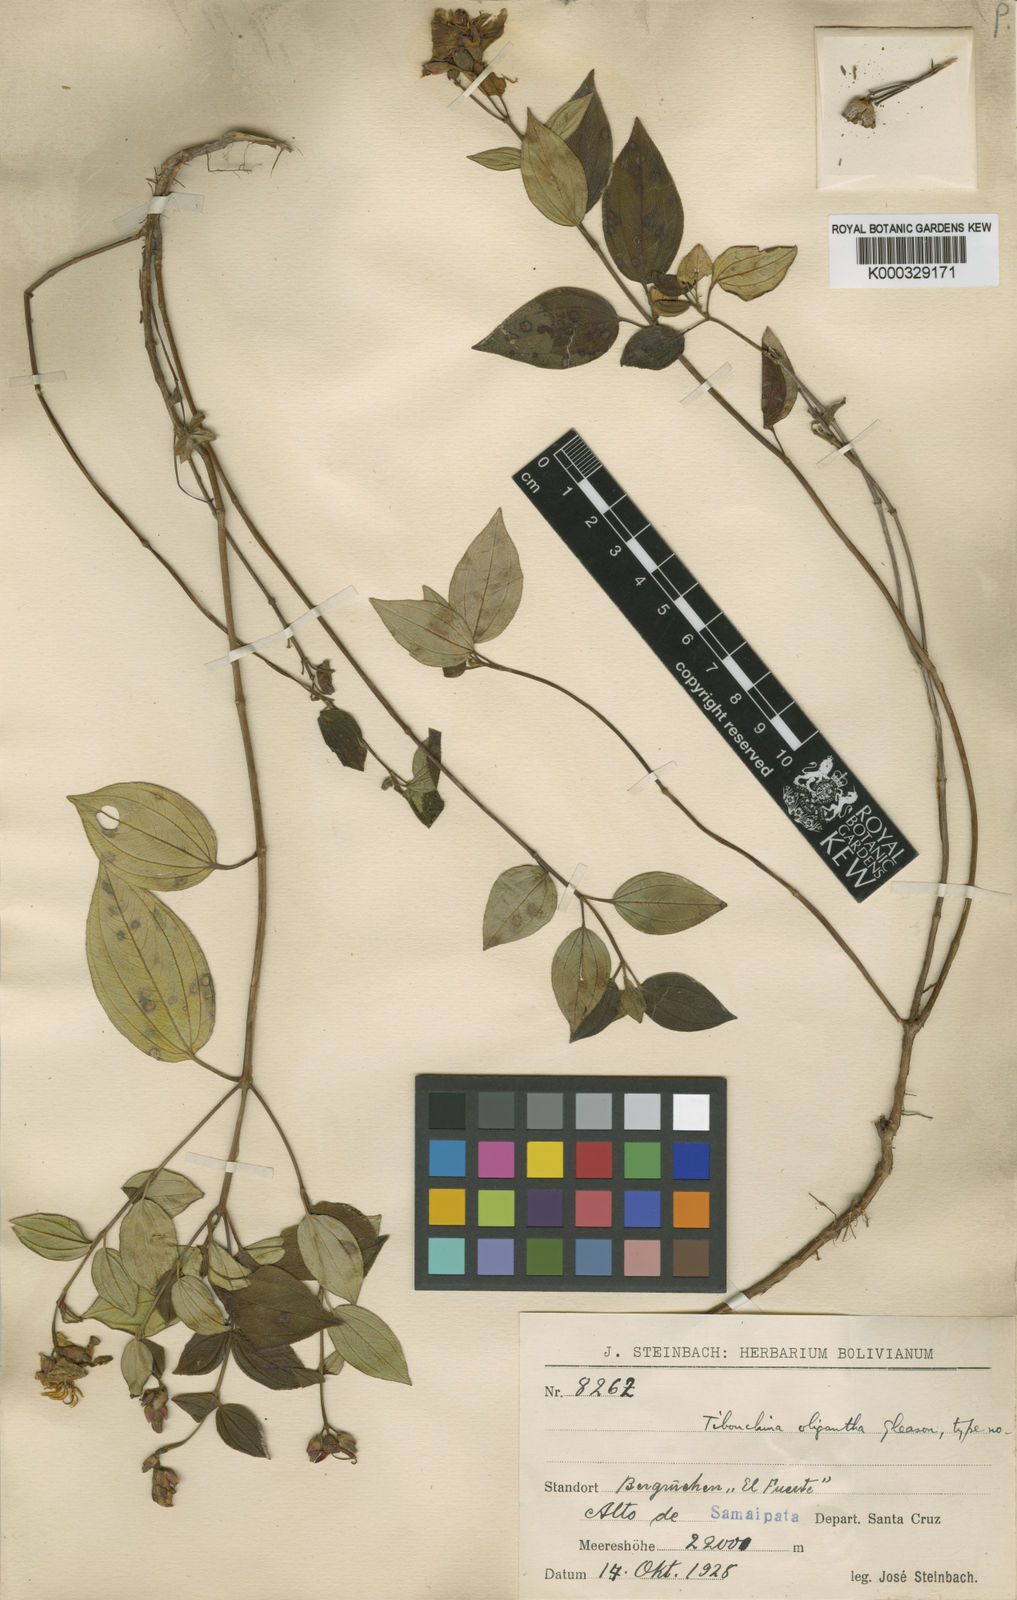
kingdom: Plantae
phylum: Tracheophyta
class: Magnoliopsida
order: Myrtales
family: Melastomataceae
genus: Chaetogastra
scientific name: Chaetogastra oligantha
